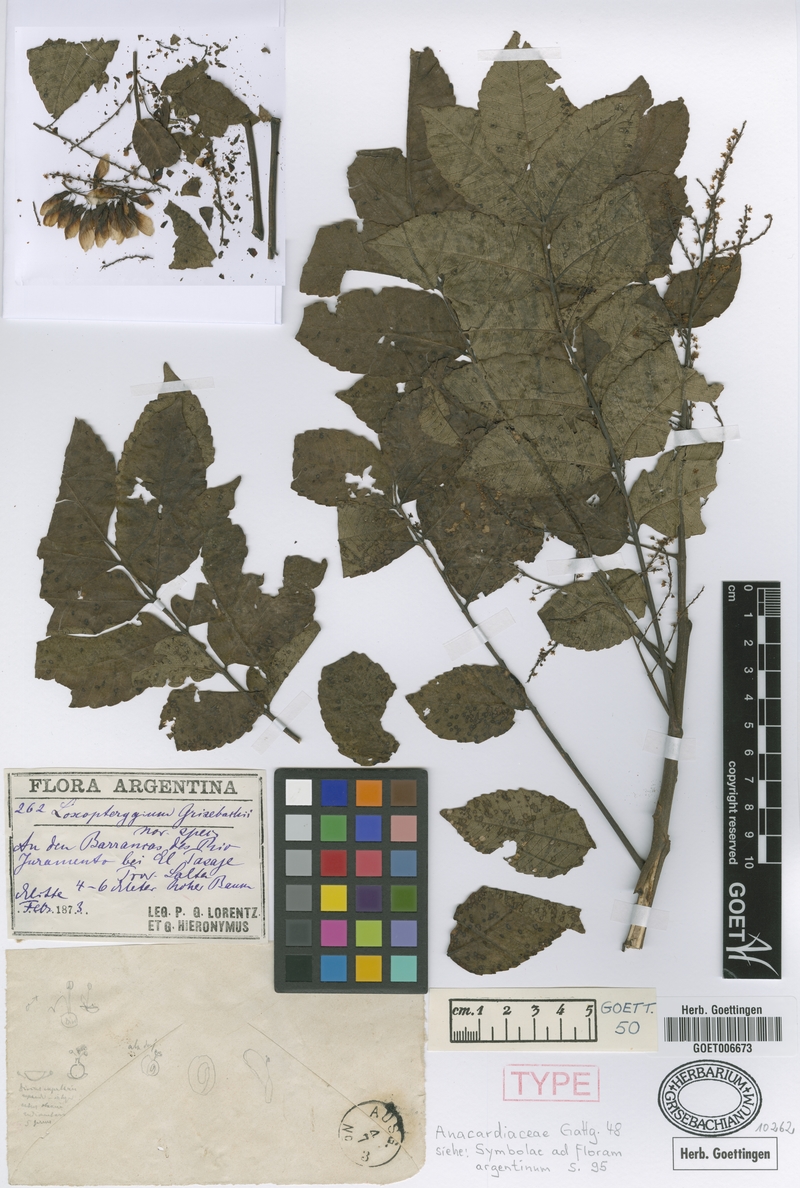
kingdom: Plantae
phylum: Tracheophyta
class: Magnoliopsida
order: Sapindales
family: Anacardiaceae
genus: Loxopterygium
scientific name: Loxopterygium
